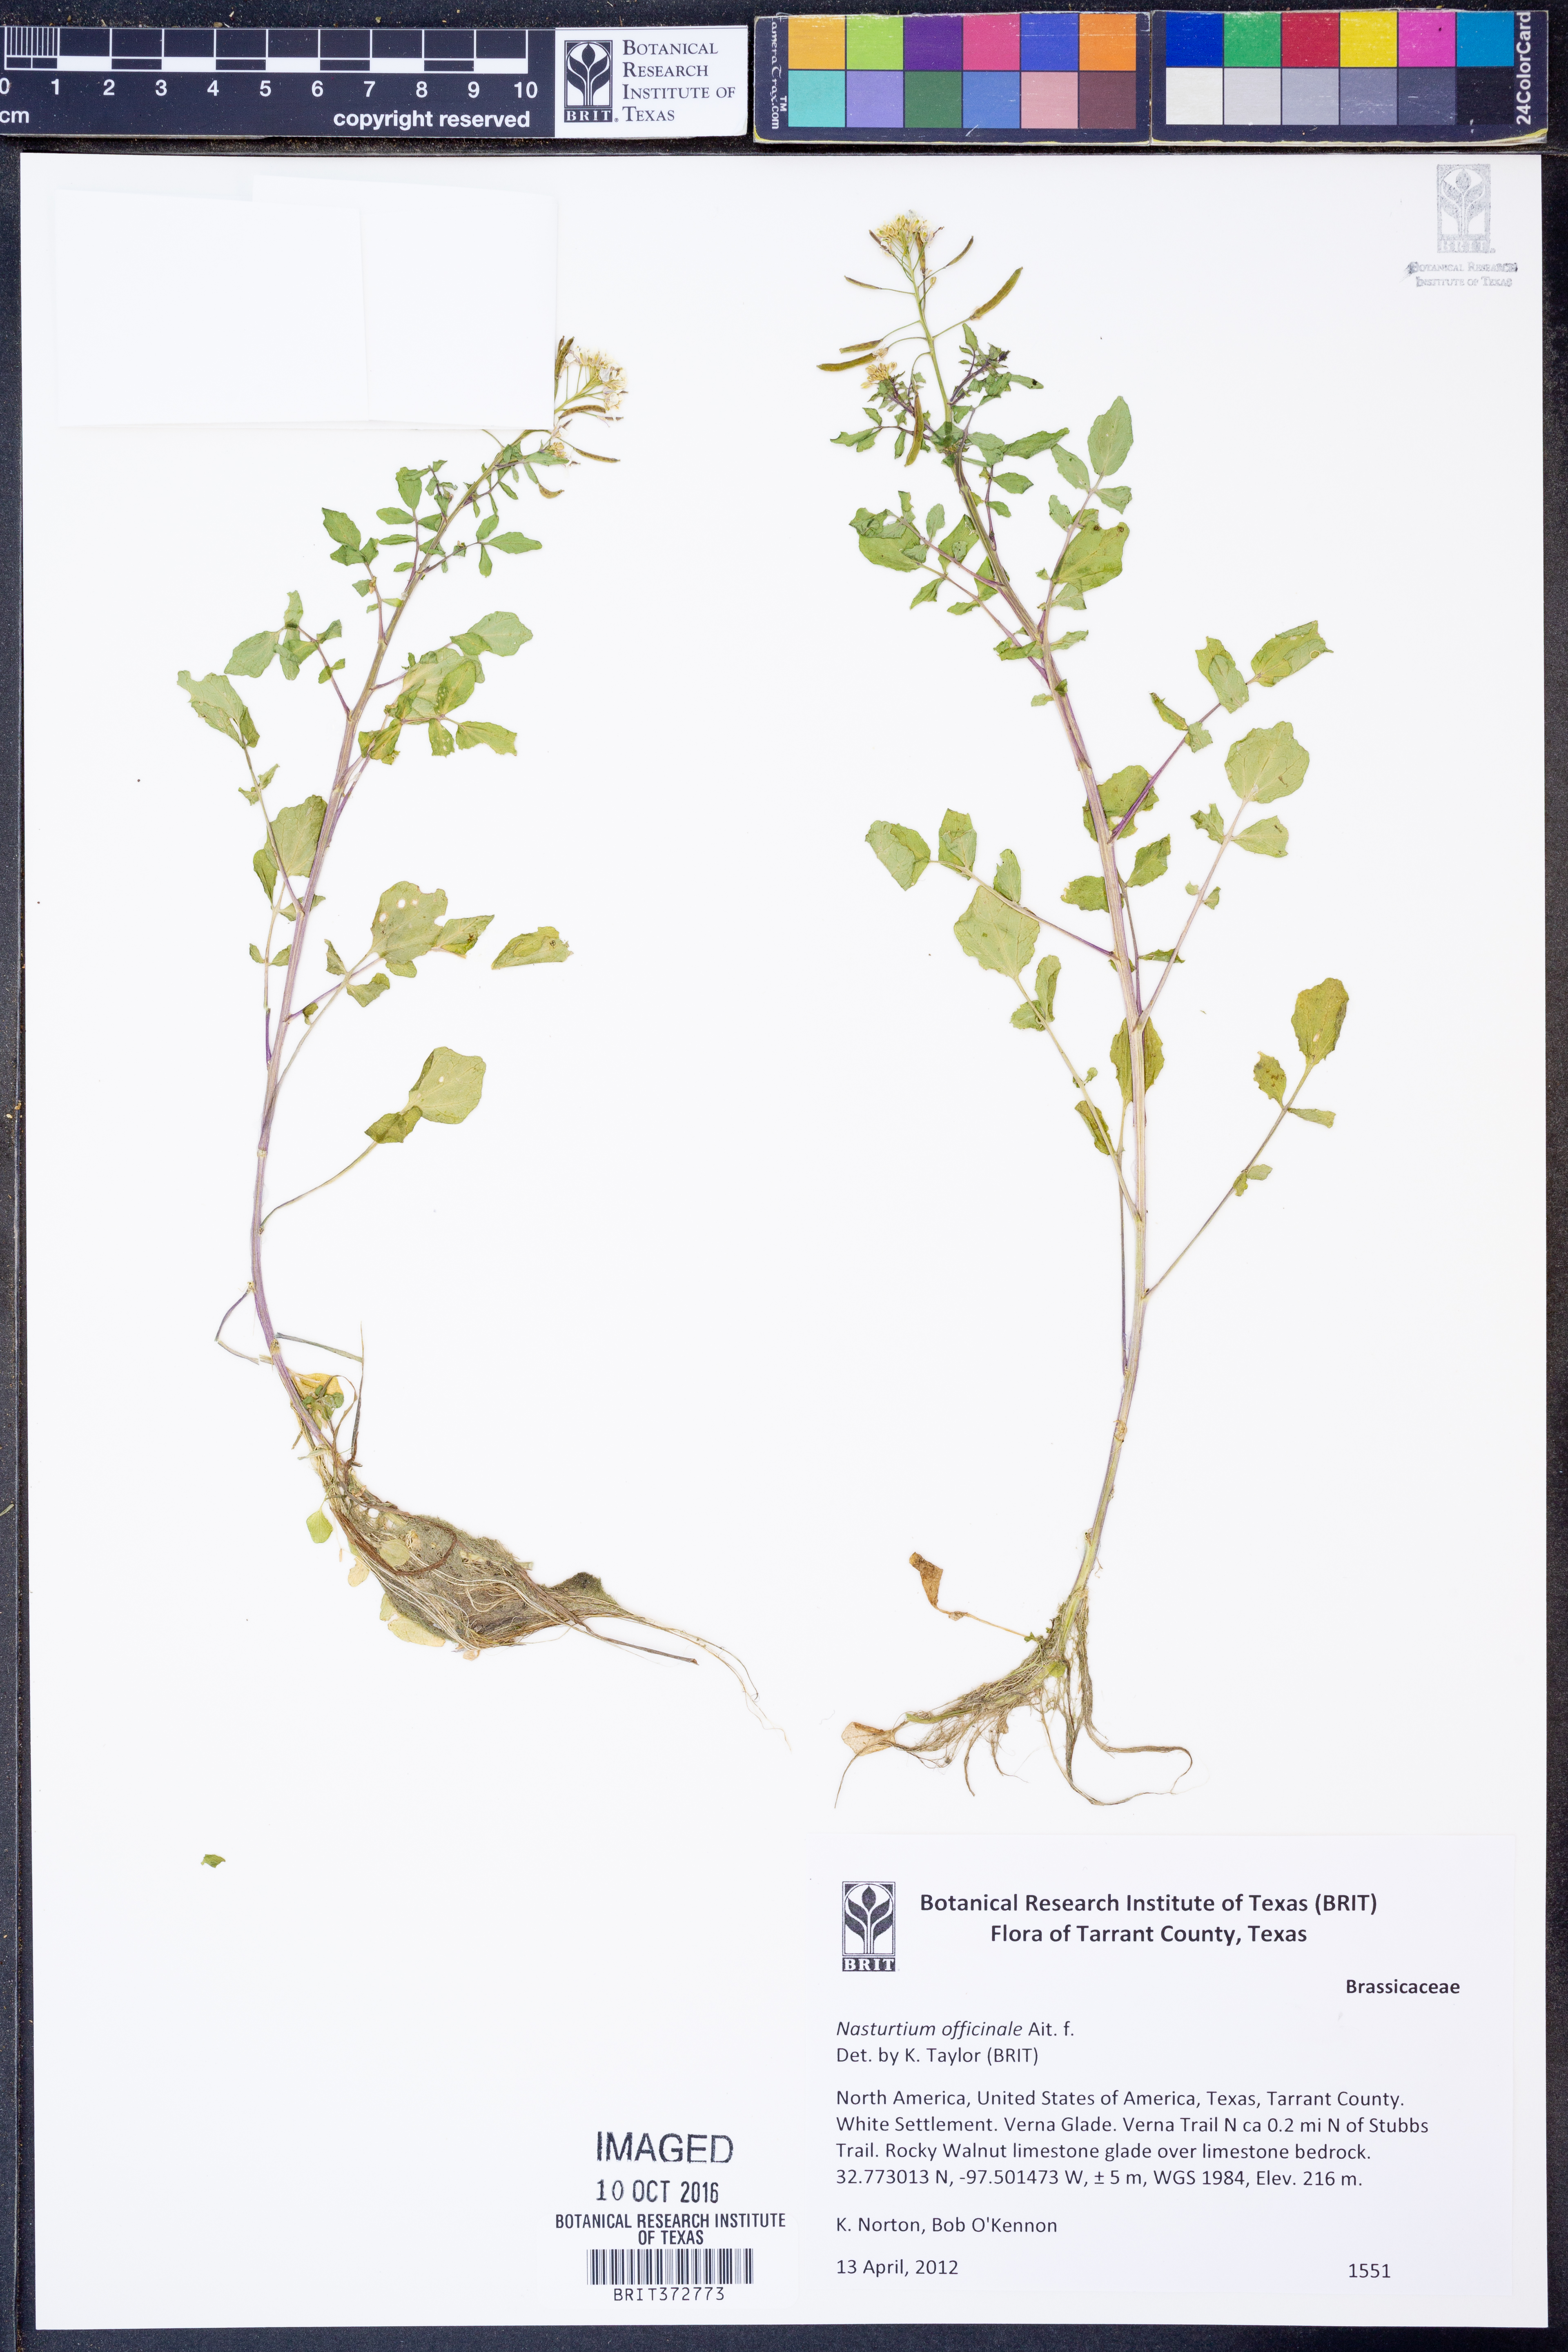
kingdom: Plantae
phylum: Tracheophyta
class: Magnoliopsida
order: Brassicales
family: Brassicaceae
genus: Nasturtium
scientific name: Nasturtium officinale
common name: Watercress
